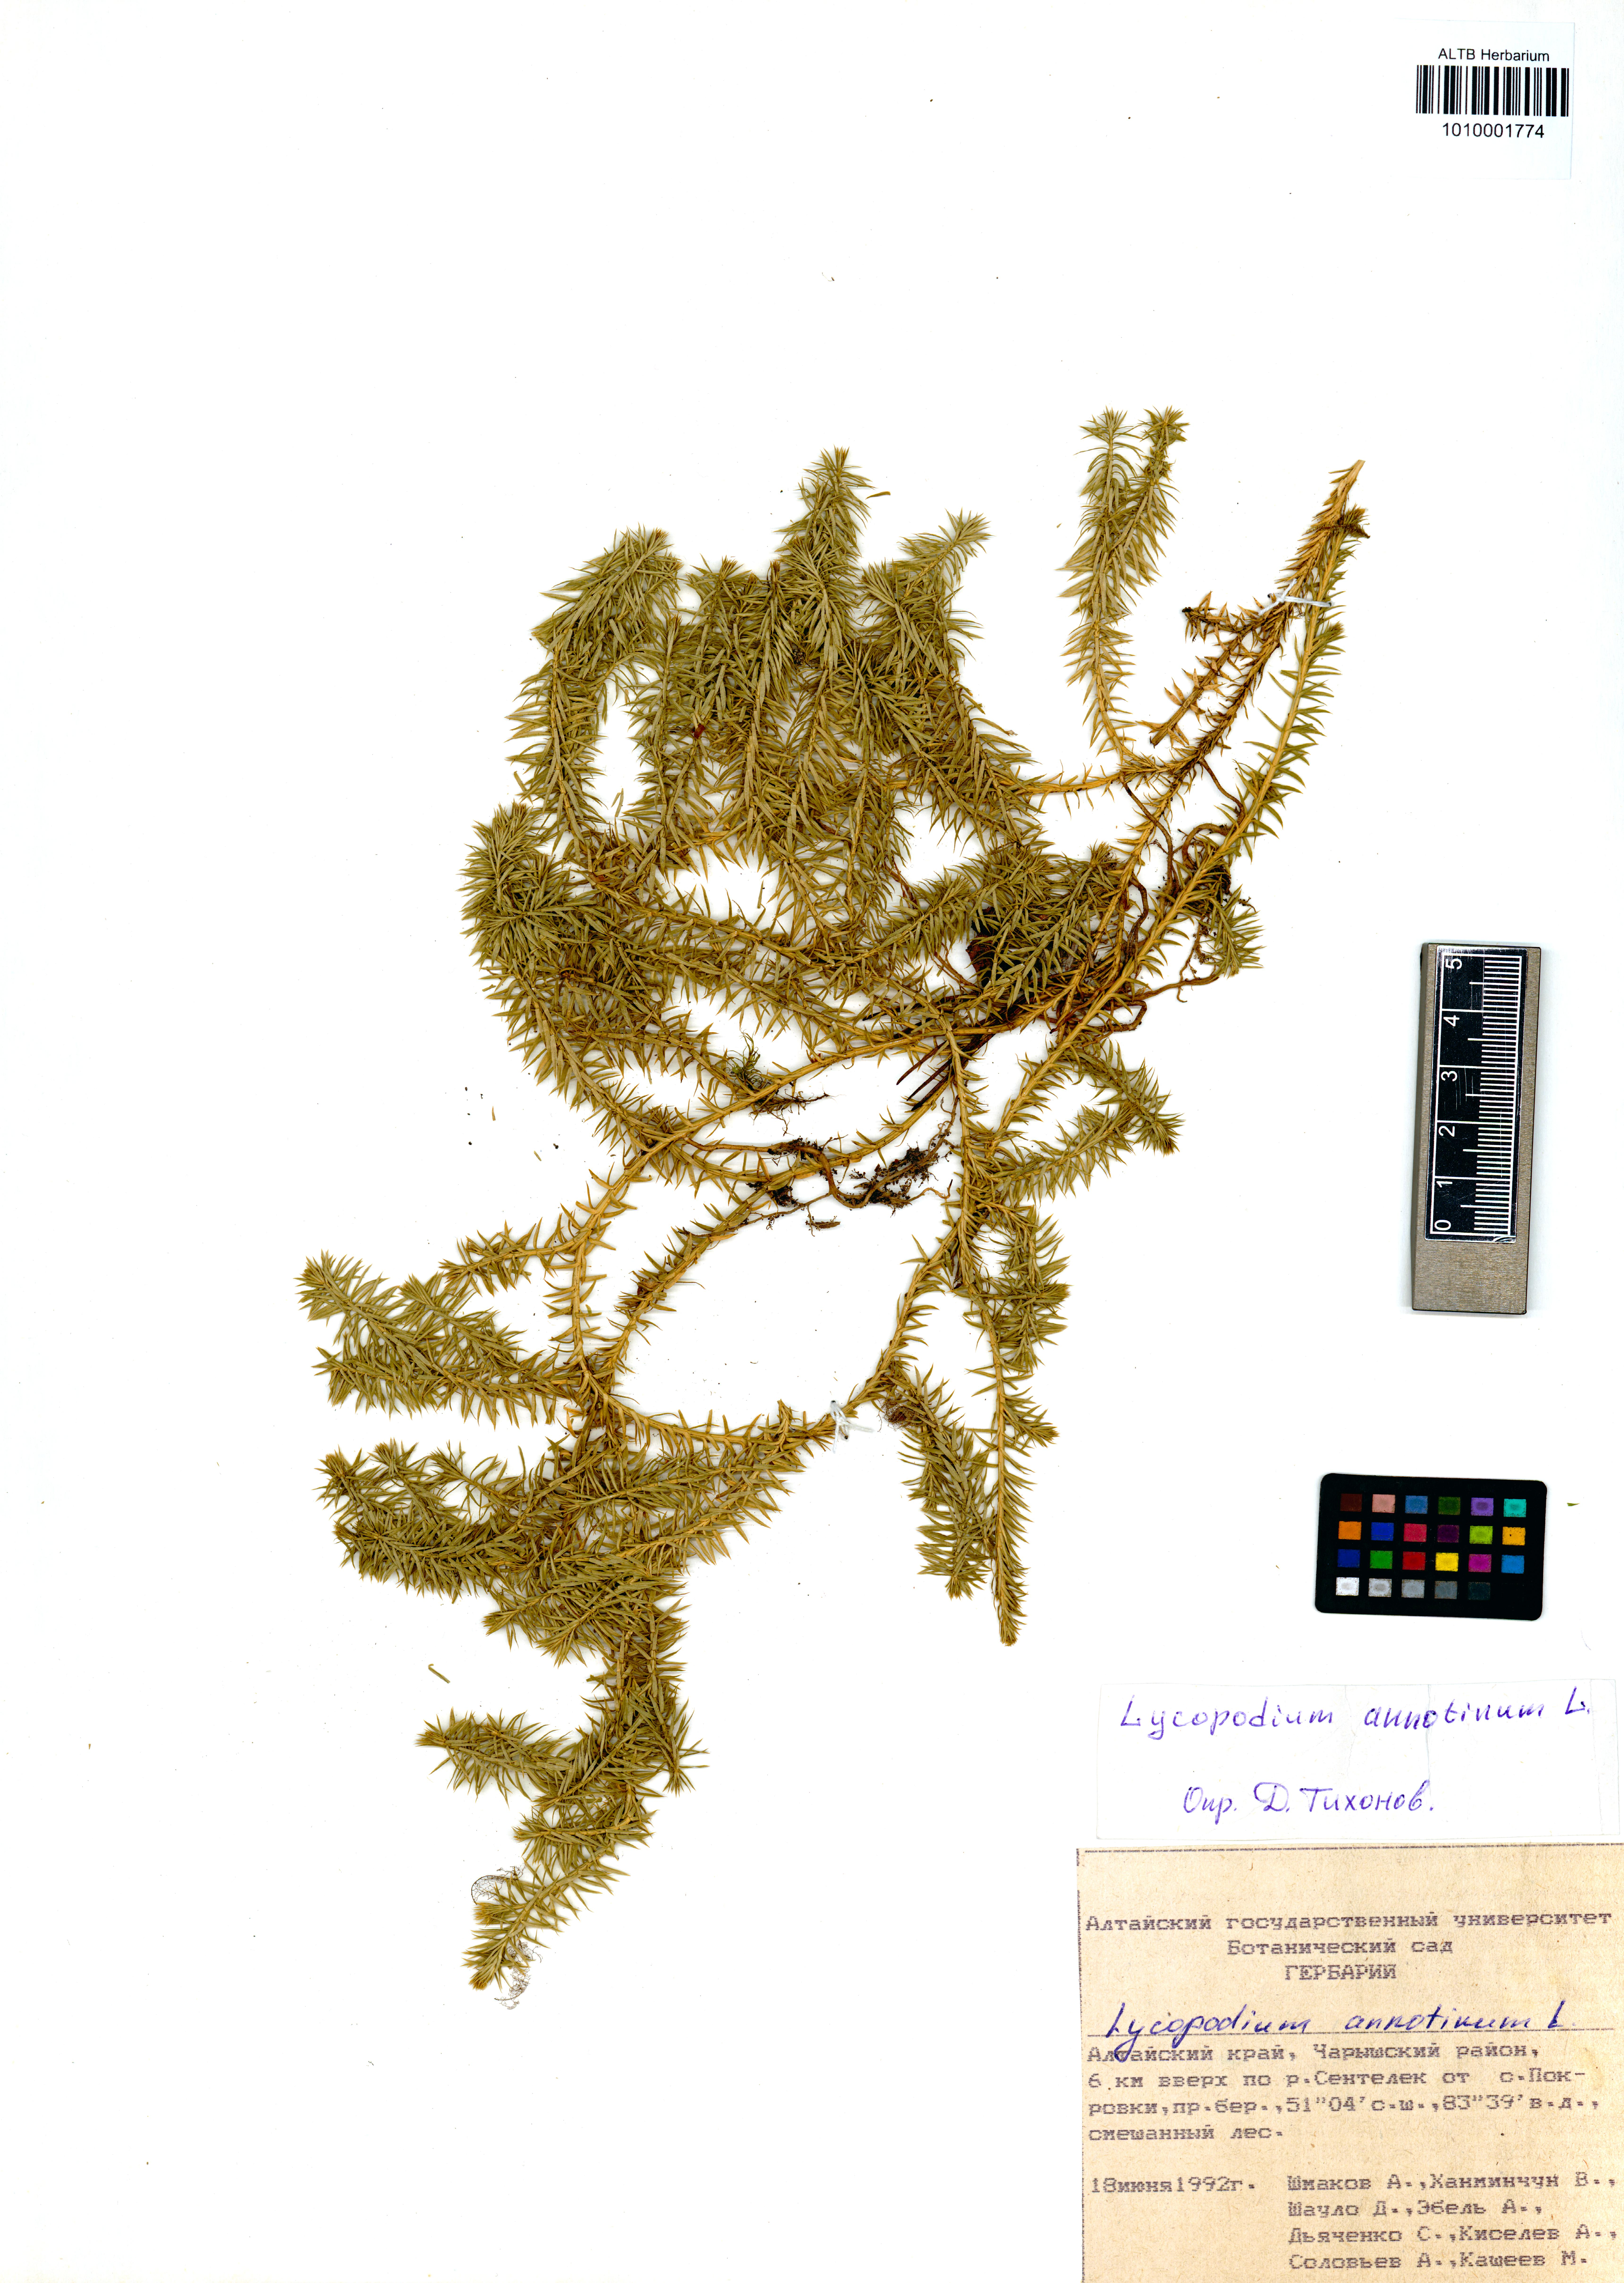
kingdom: Plantae
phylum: Tracheophyta
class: Lycopodiopsida
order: Lycopodiales
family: Lycopodiaceae
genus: Spinulum
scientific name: Spinulum annotinum
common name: Interrupted club-moss
